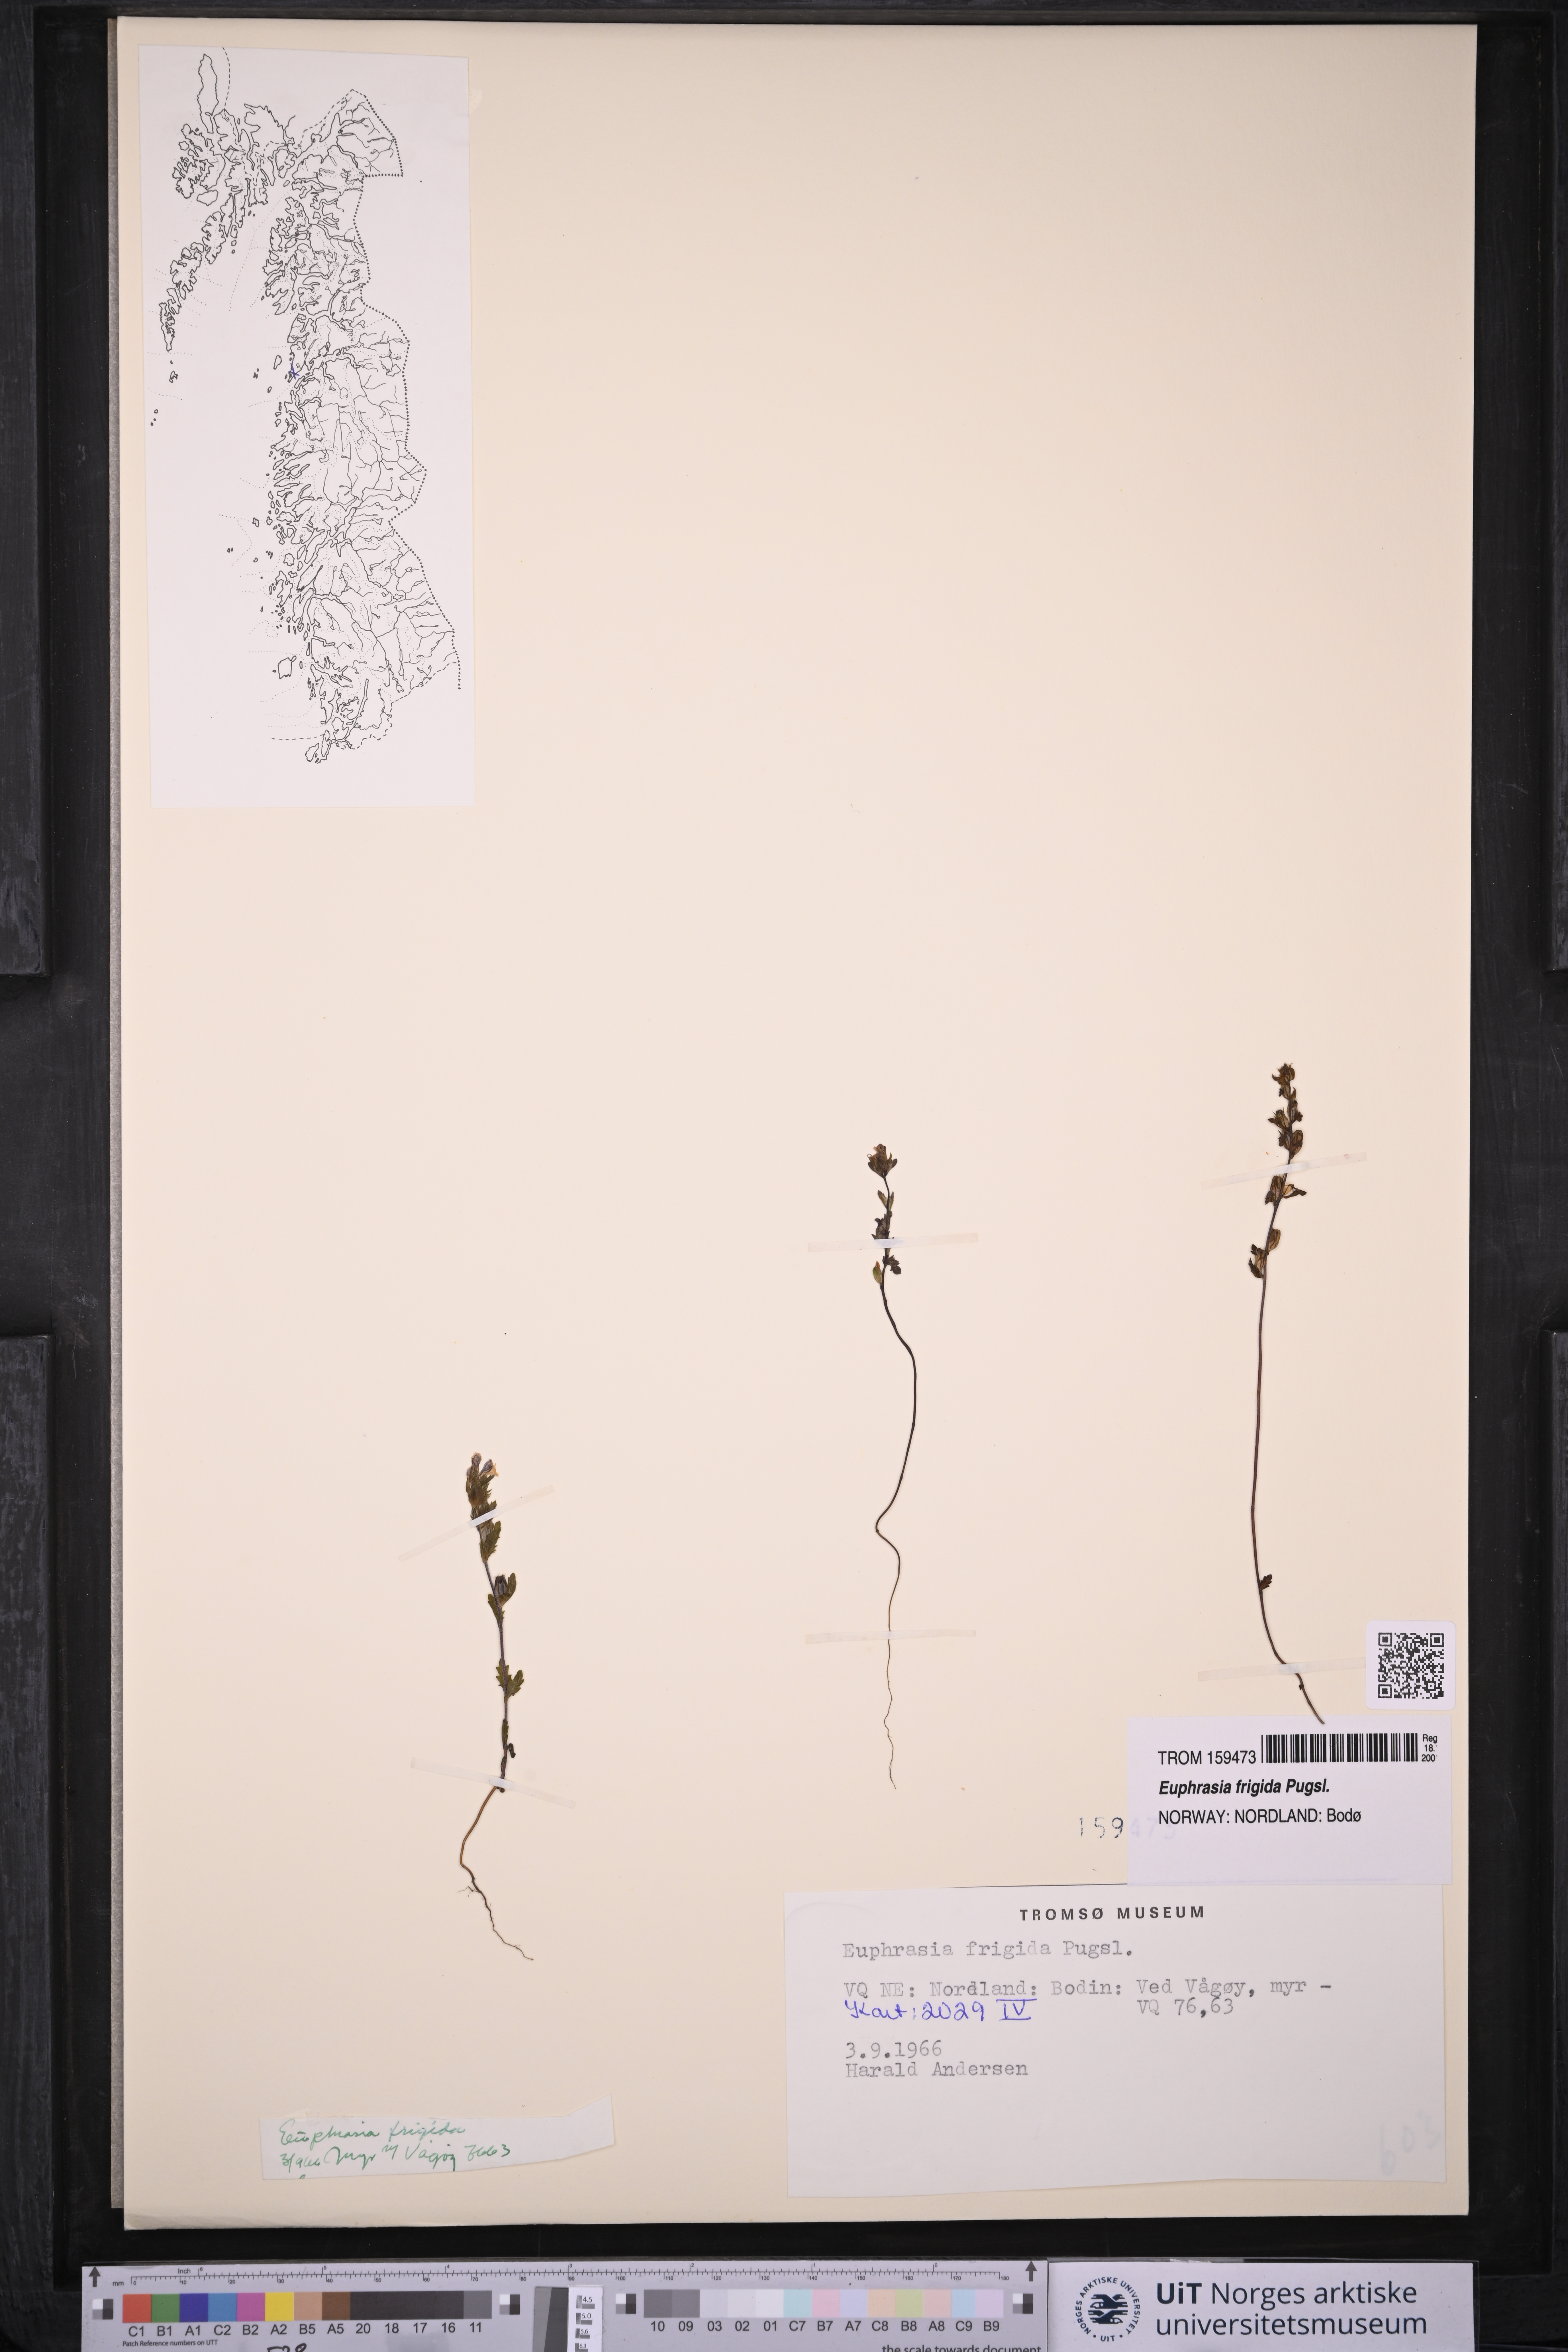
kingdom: Plantae
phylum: Tracheophyta
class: Magnoliopsida
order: Lamiales
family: Orobanchaceae
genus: Euphrasia
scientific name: Euphrasia frigida
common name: An eyebright
